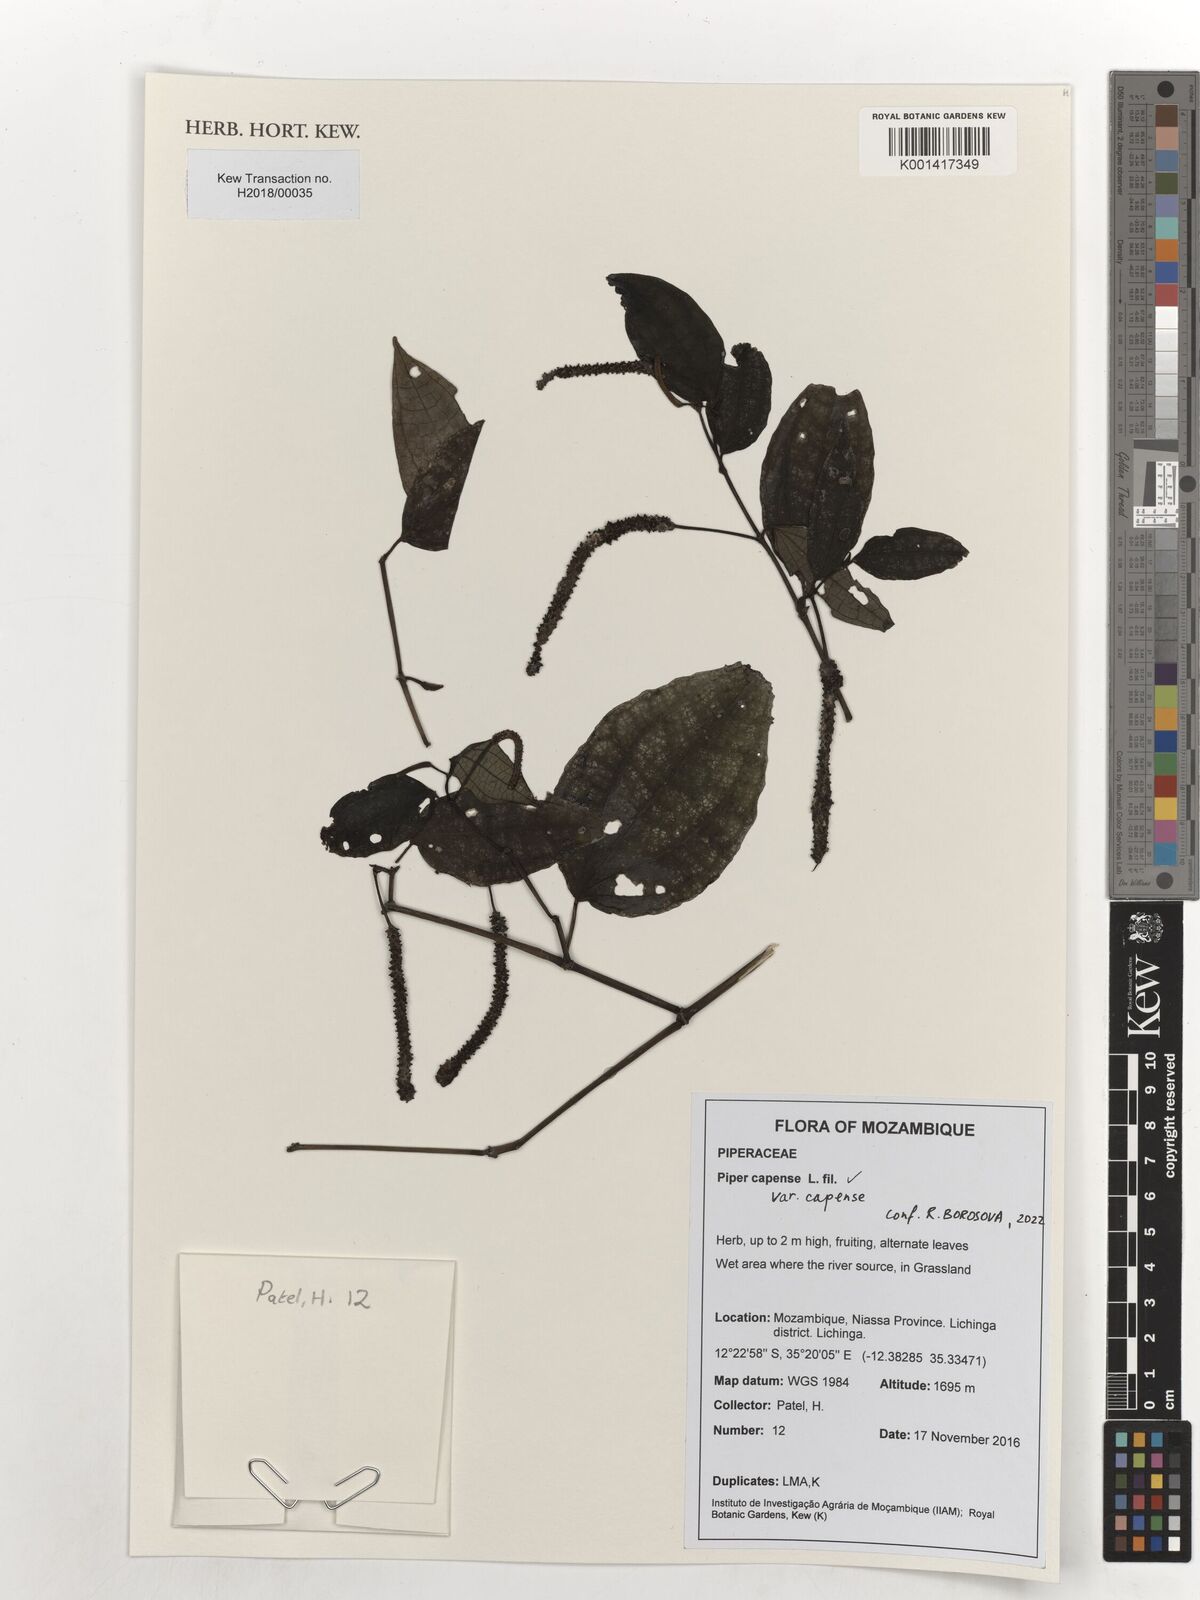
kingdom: Plantae
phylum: Tracheophyta
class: Magnoliopsida
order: Piperales
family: Piperaceae
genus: Piper
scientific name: Piper capense
